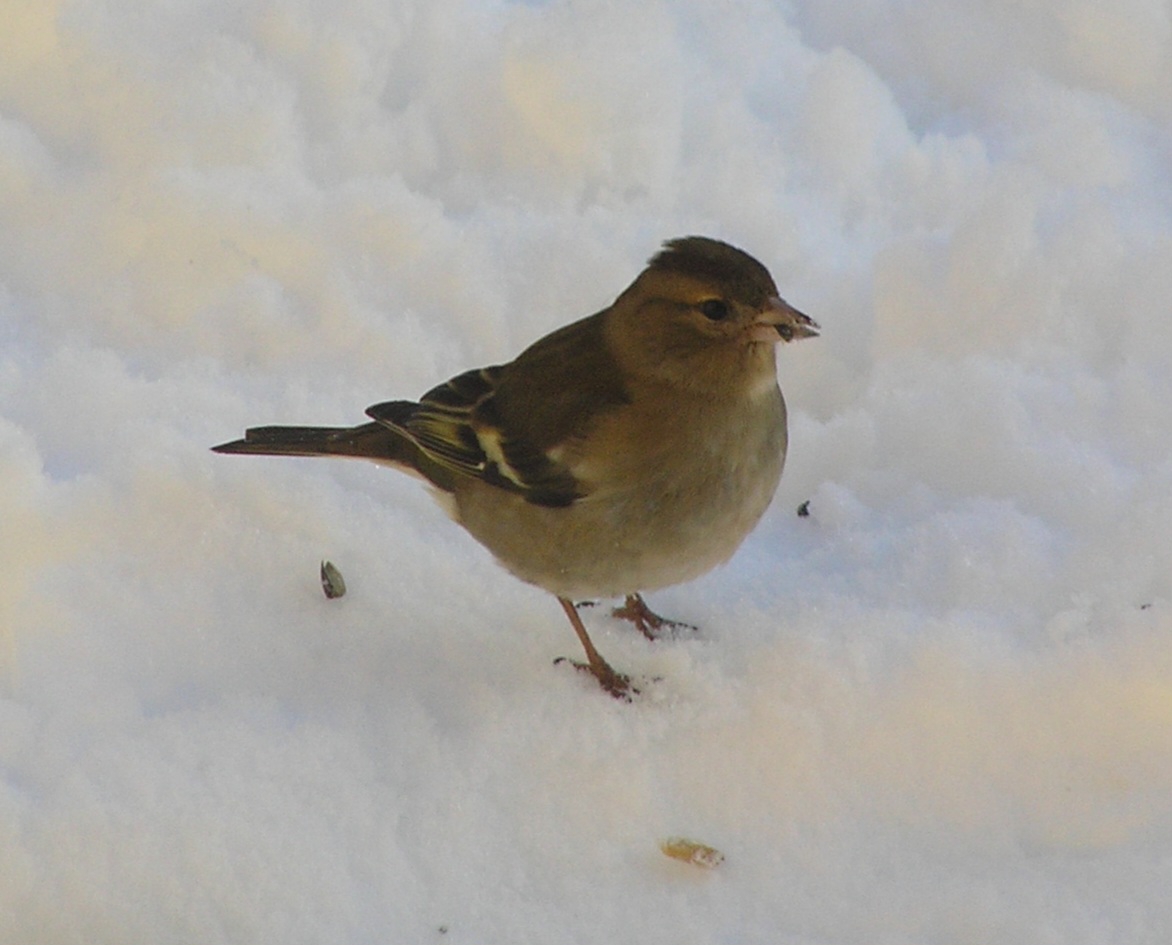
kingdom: Animalia
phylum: Chordata
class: Aves
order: Passeriformes
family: Fringillidae
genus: Fringilla
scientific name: Fringilla coelebs
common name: Bogfinke
